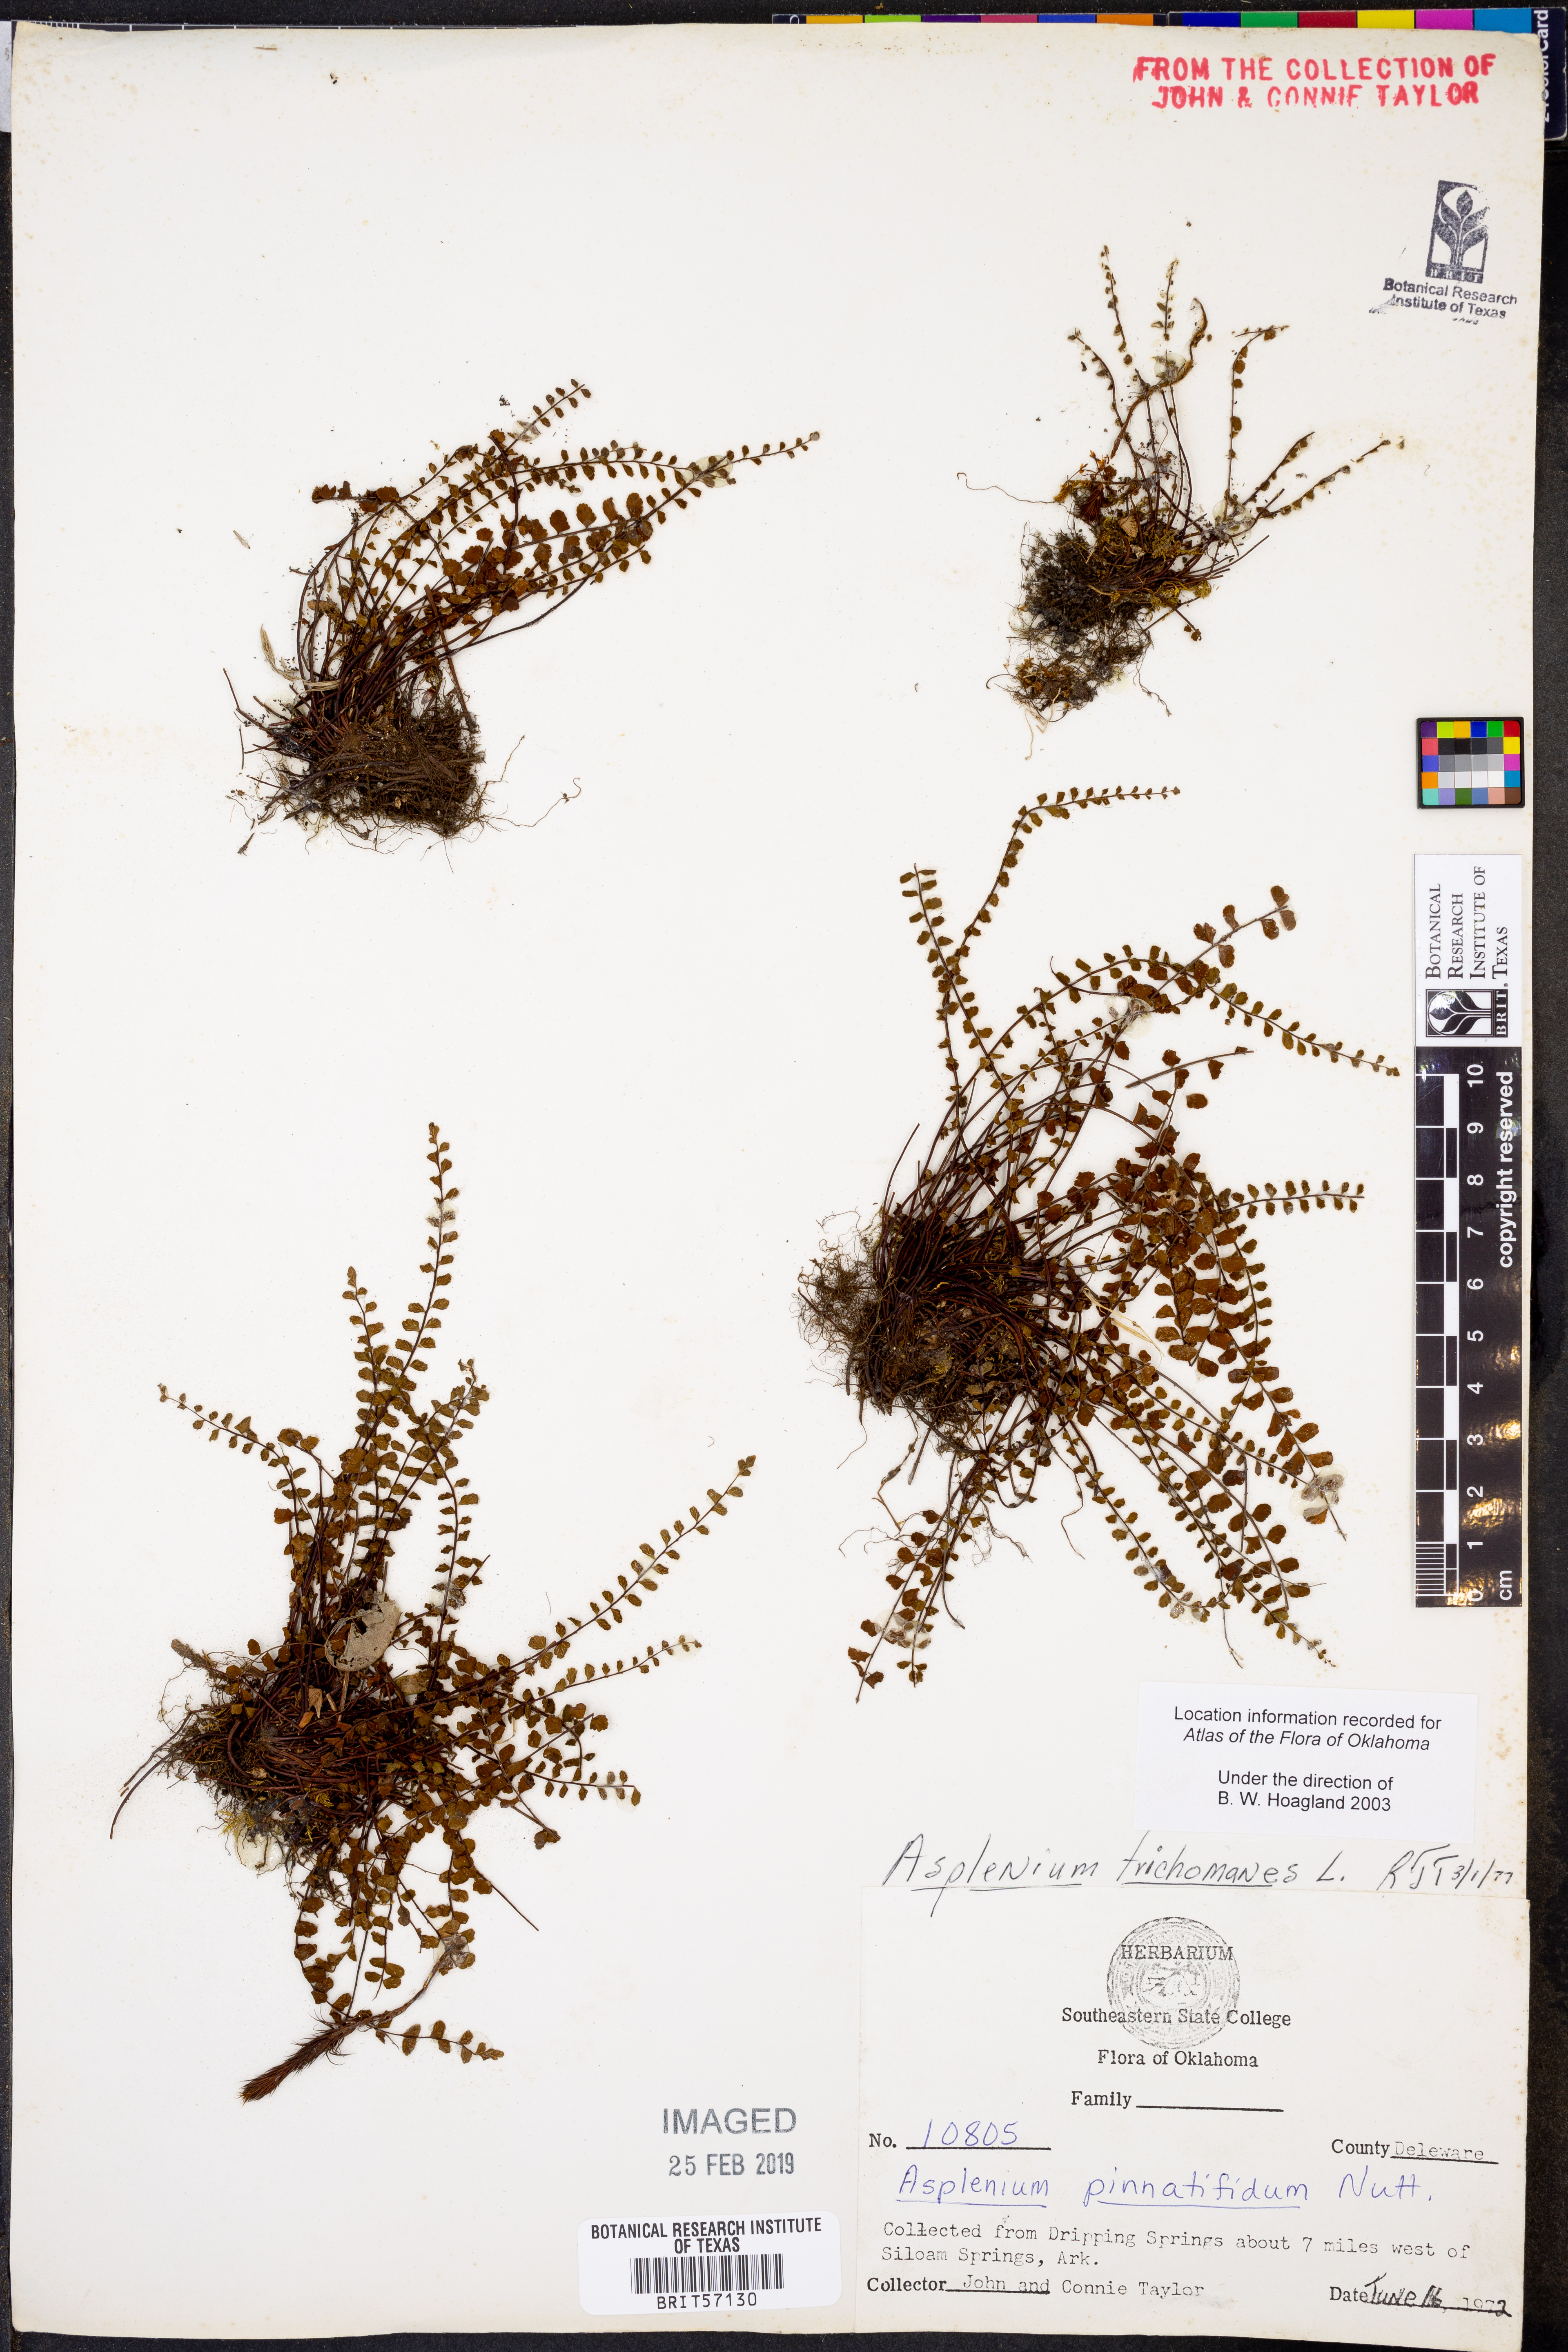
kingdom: Plantae
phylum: Tracheophyta
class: Polypodiopsida
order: Polypodiales
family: Aspleniaceae
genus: Asplenium
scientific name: Asplenium trichomanes
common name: Maidenhair spleenwort
